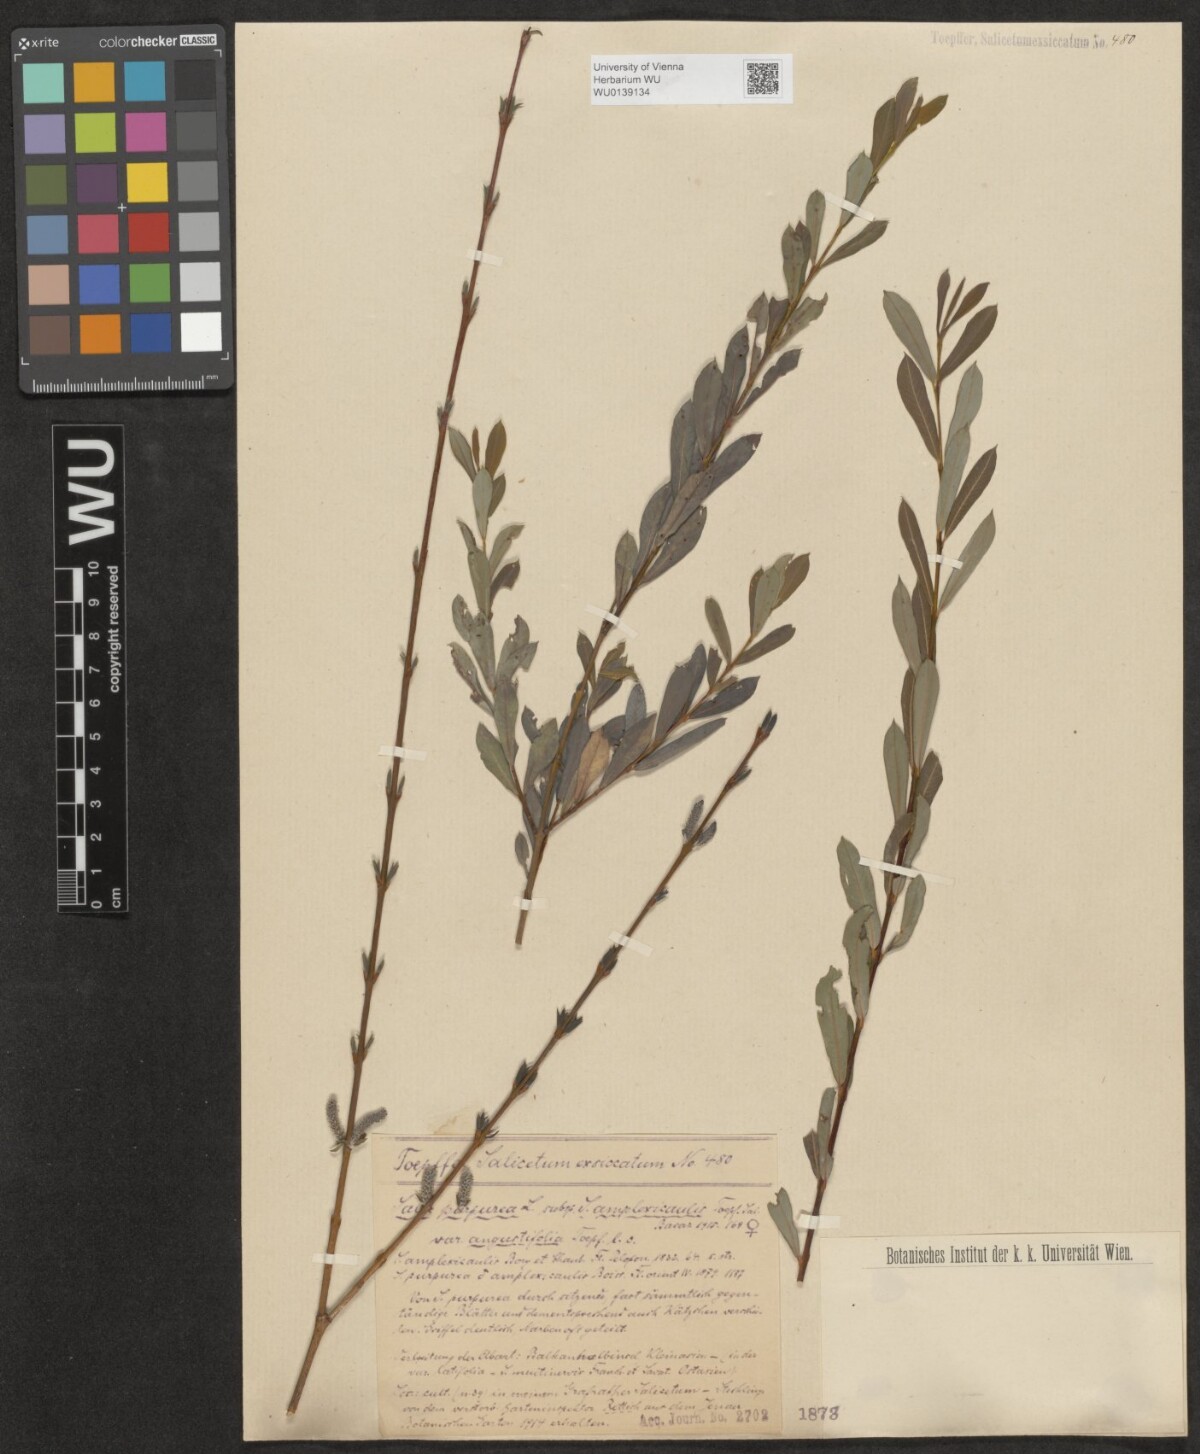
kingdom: Plantae
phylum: Tracheophyta
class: Magnoliopsida
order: Malpighiales
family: Salicaceae
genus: Salix
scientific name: Salix amplexicaulis
